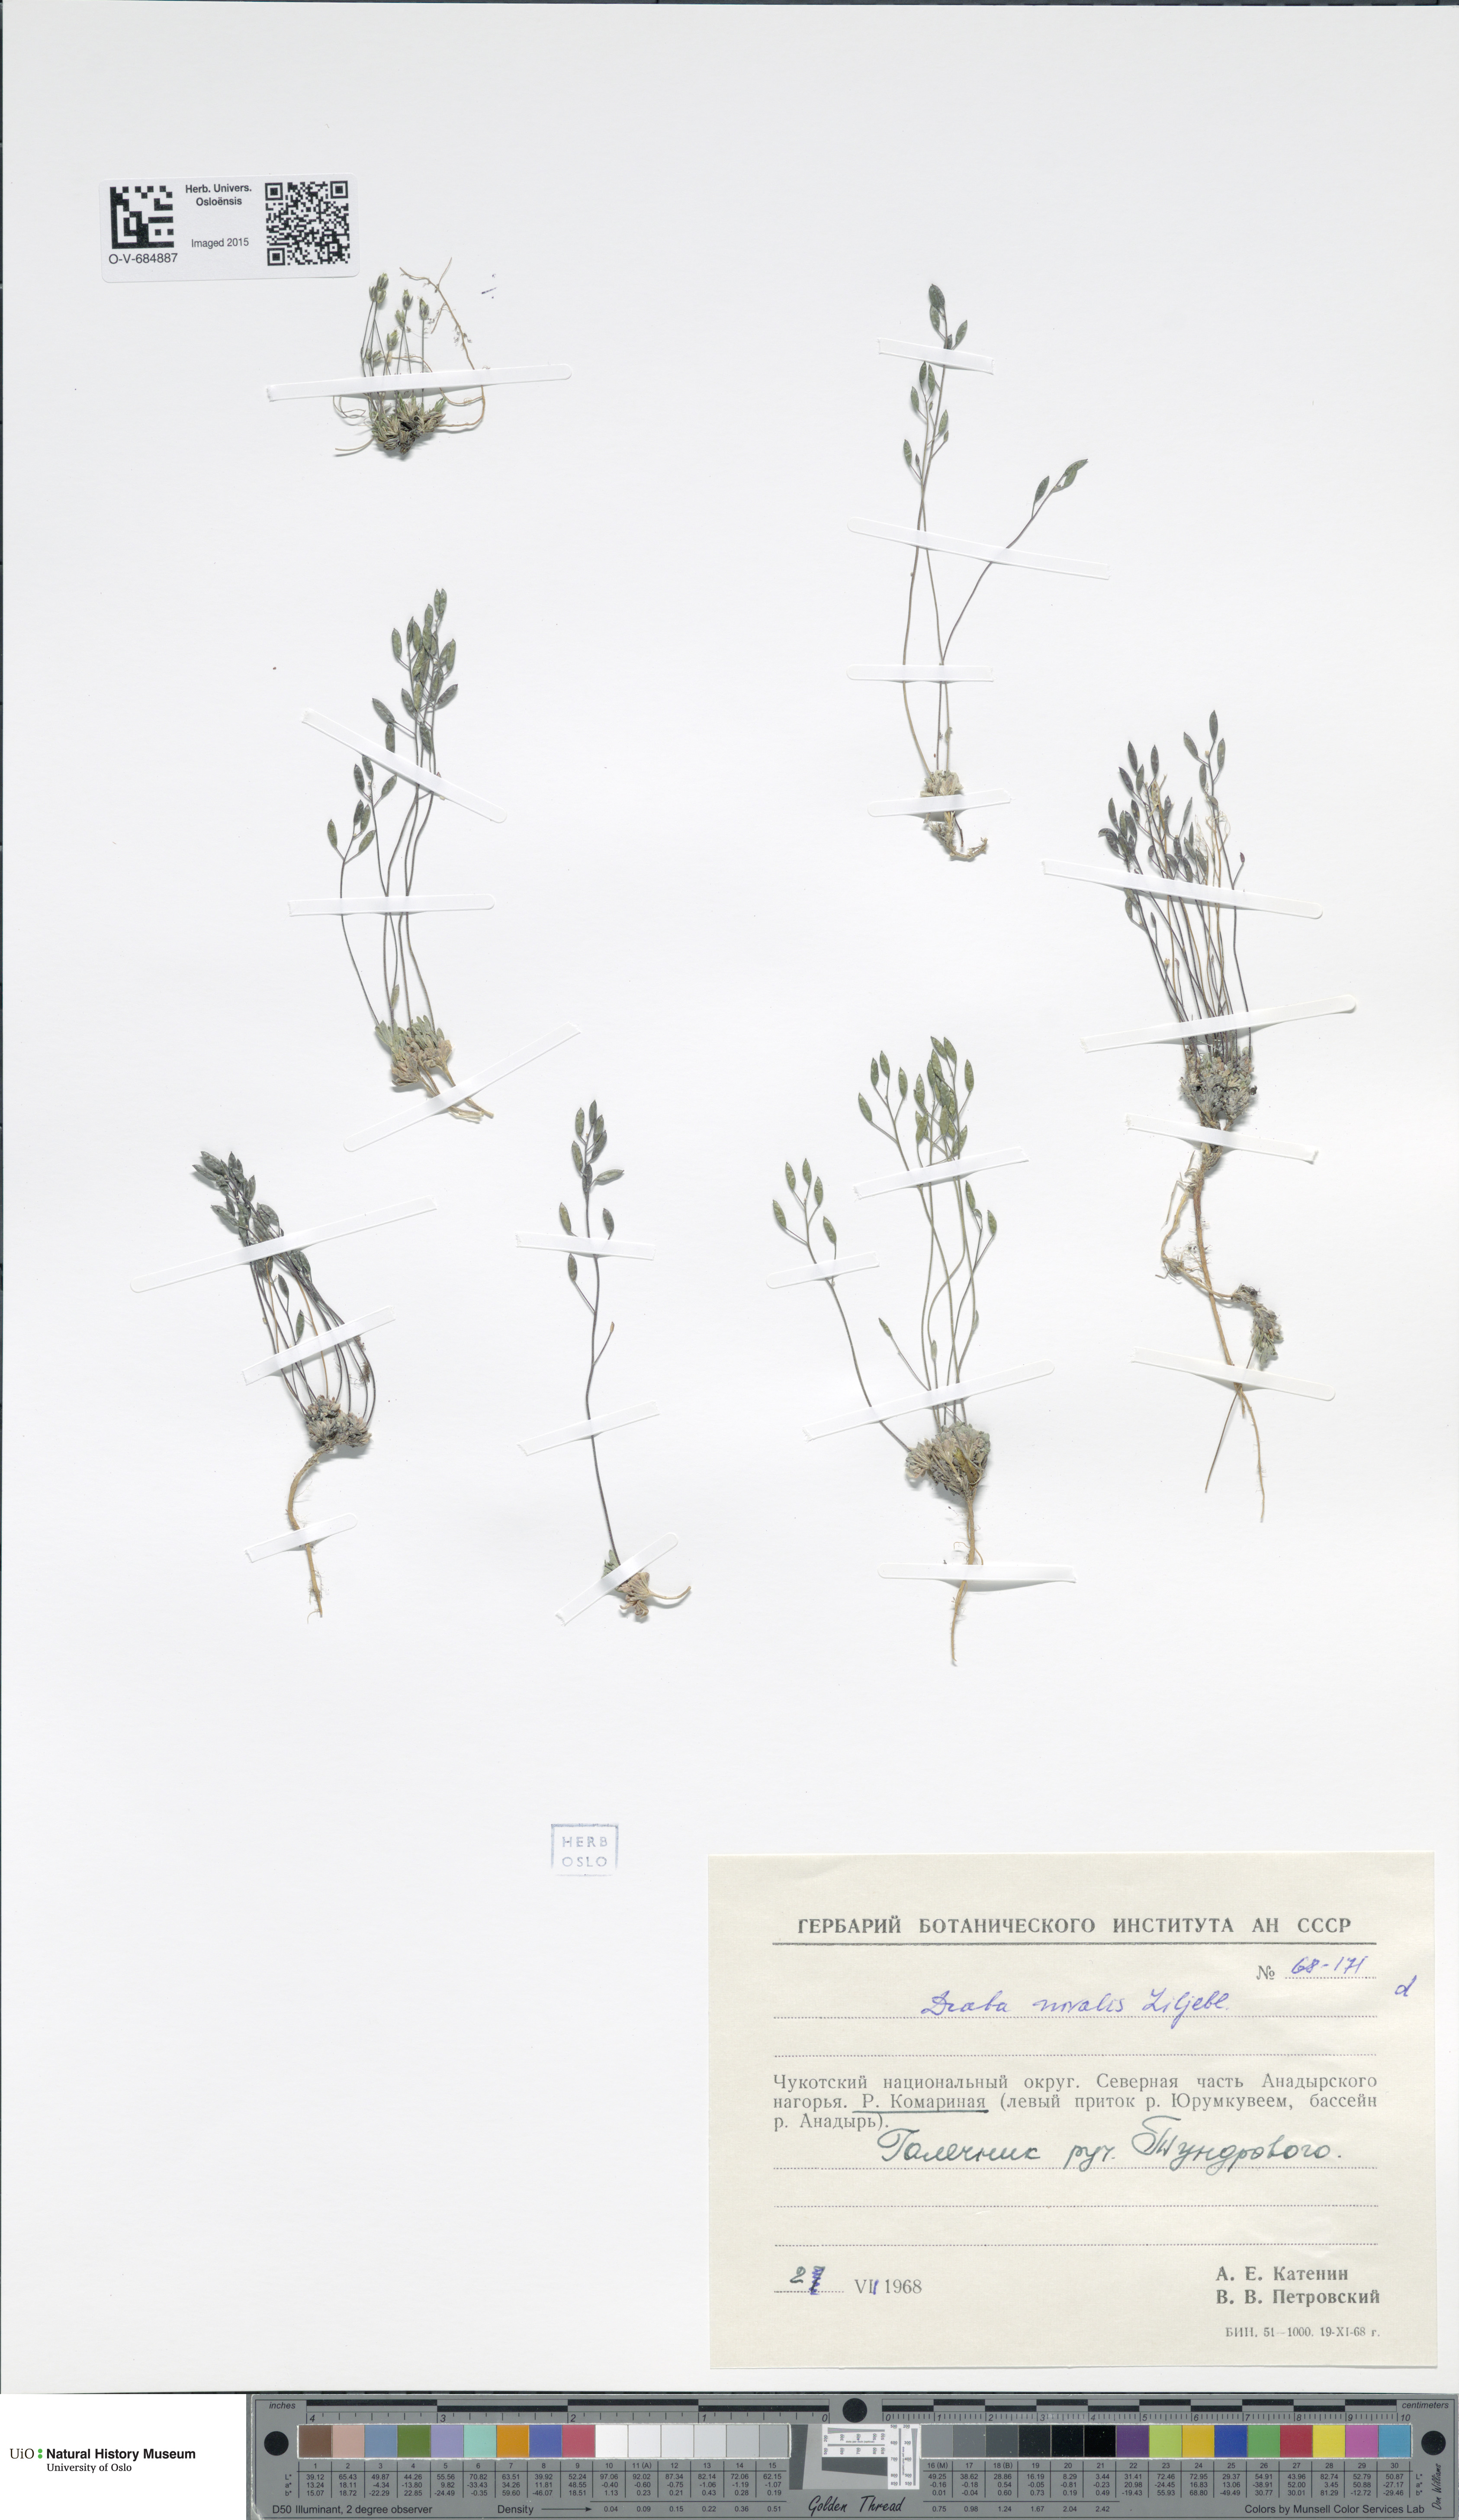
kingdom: Plantae
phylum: Tracheophyta
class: Magnoliopsida
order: Brassicales
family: Brassicaceae
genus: Draba
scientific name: Draba nivalis
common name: Snow draba
